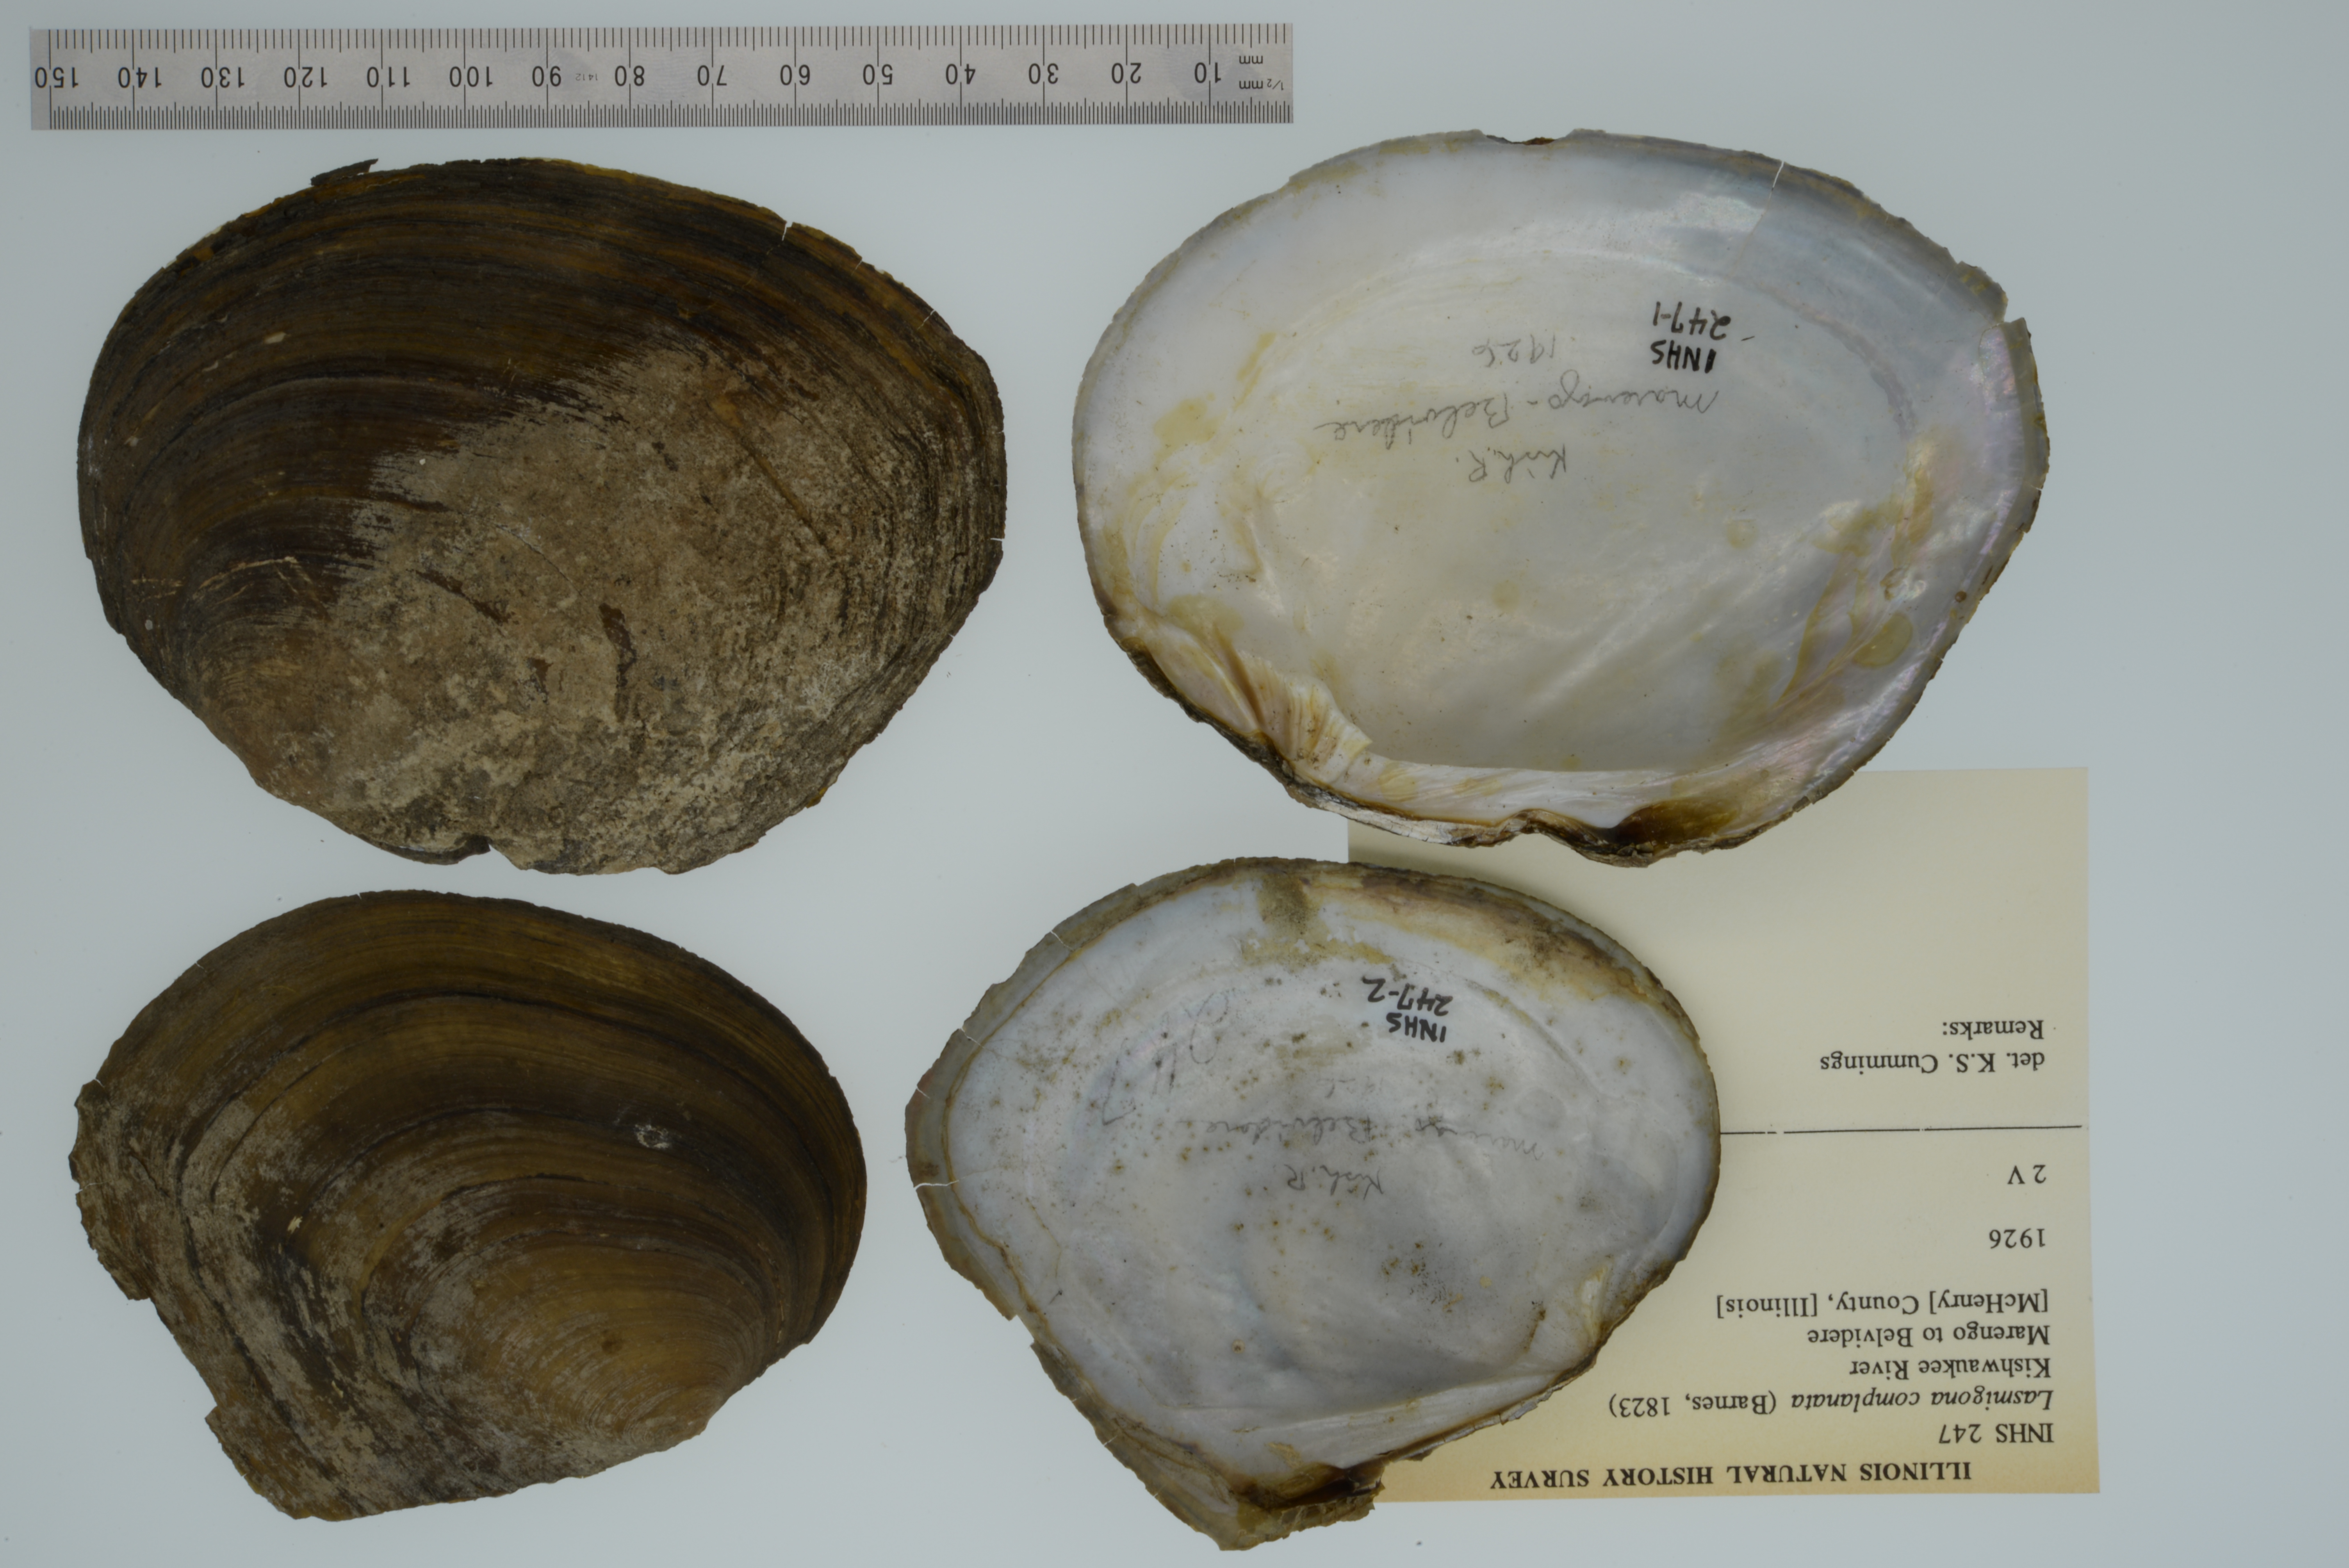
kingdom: Animalia
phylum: Mollusca
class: Bivalvia
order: Unionida
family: Unionidae
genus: Lasmigona
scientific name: Lasmigona complanata
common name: White heelsplitter
